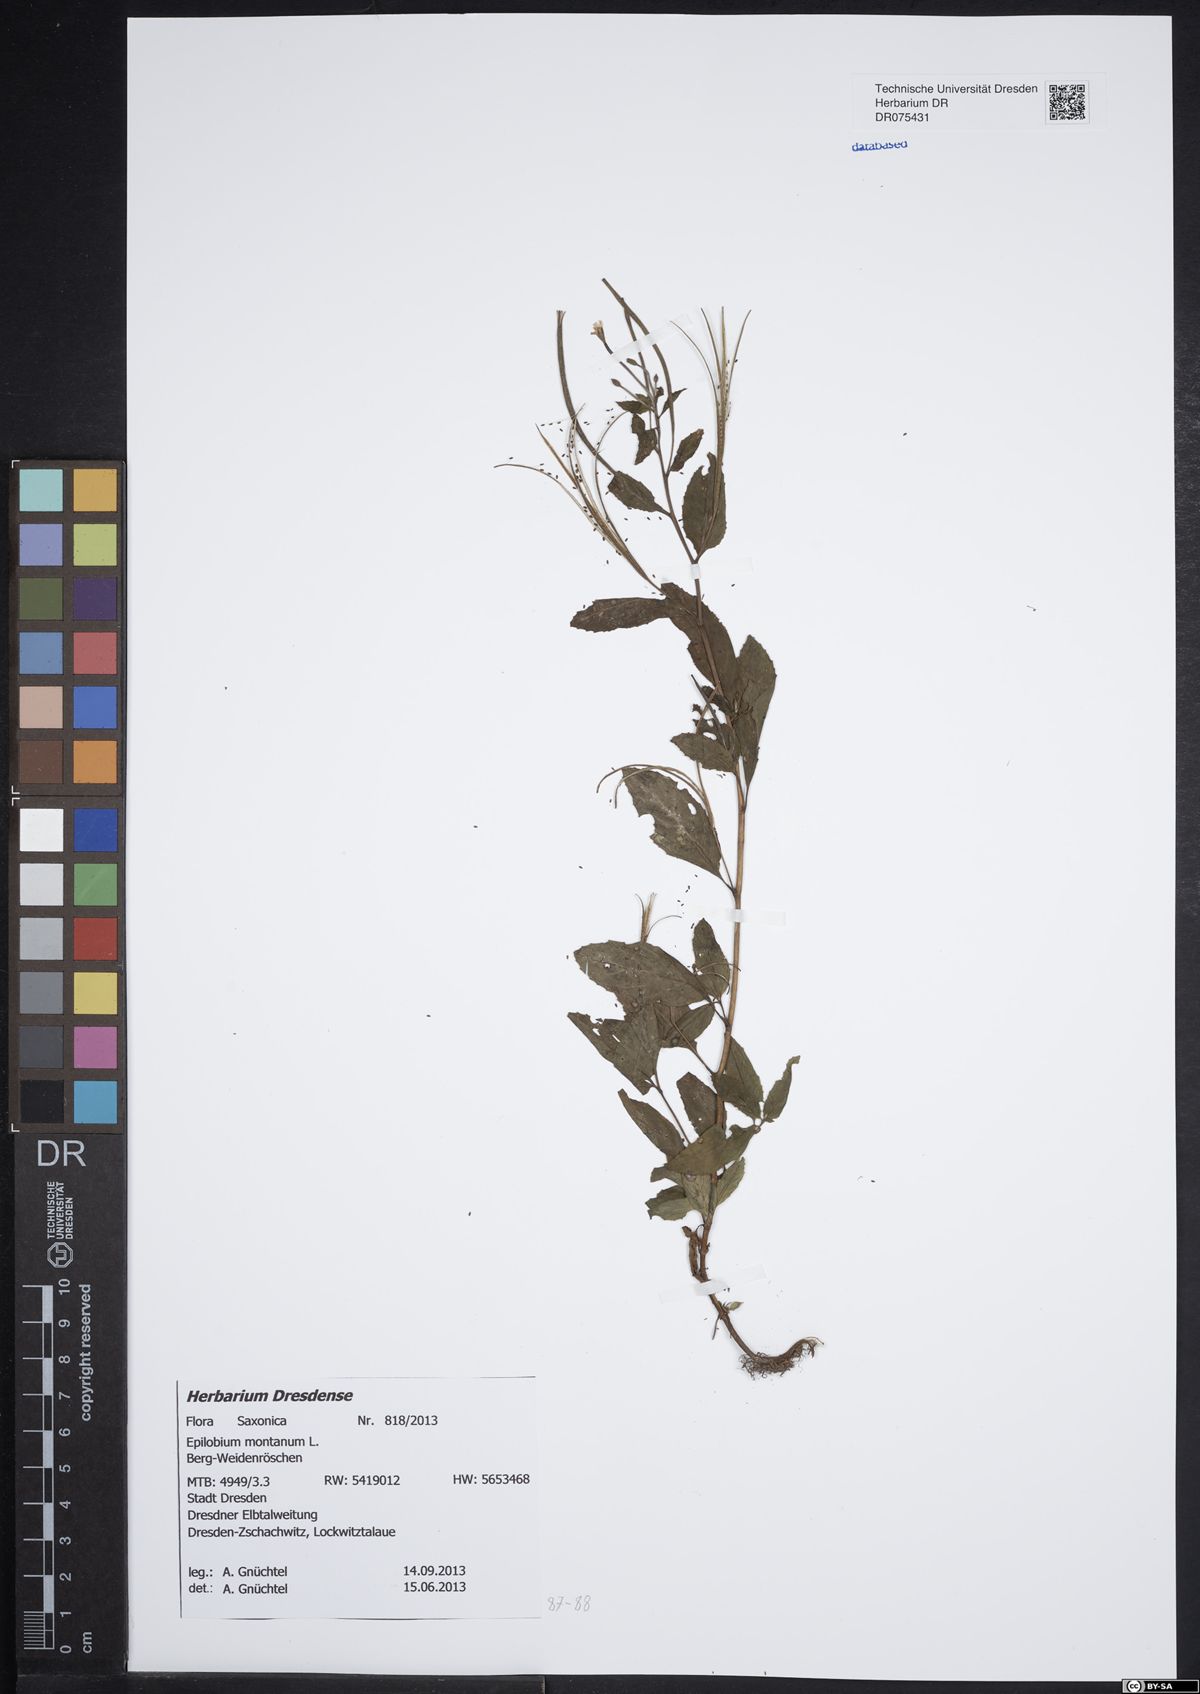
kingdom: Plantae
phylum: Tracheophyta
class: Magnoliopsida
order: Myrtales
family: Onagraceae
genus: Epilobium
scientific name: Epilobium montanum
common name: Broad-leaved willowherb
